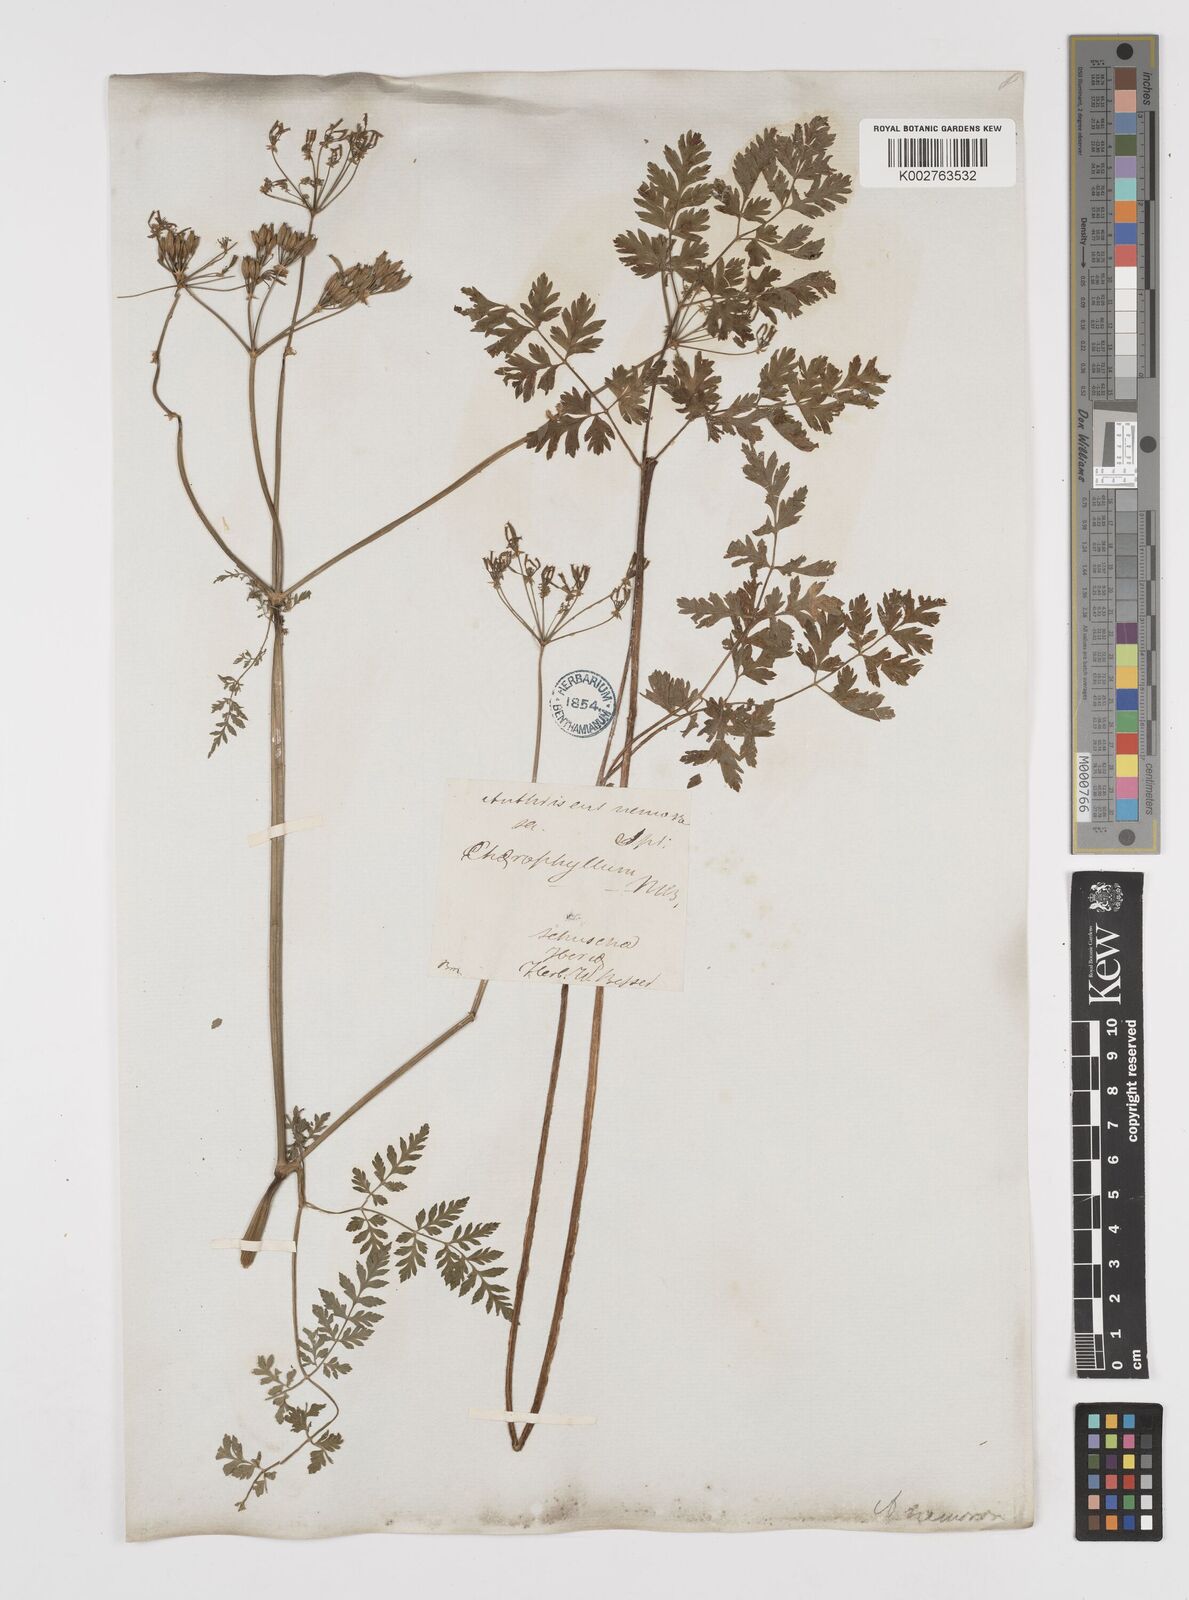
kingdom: Plantae
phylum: Tracheophyta
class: Magnoliopsida
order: Apiales
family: Apiaceae
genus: Anthriscus
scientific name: Anthriscus sylvestris
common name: Cow parsley
